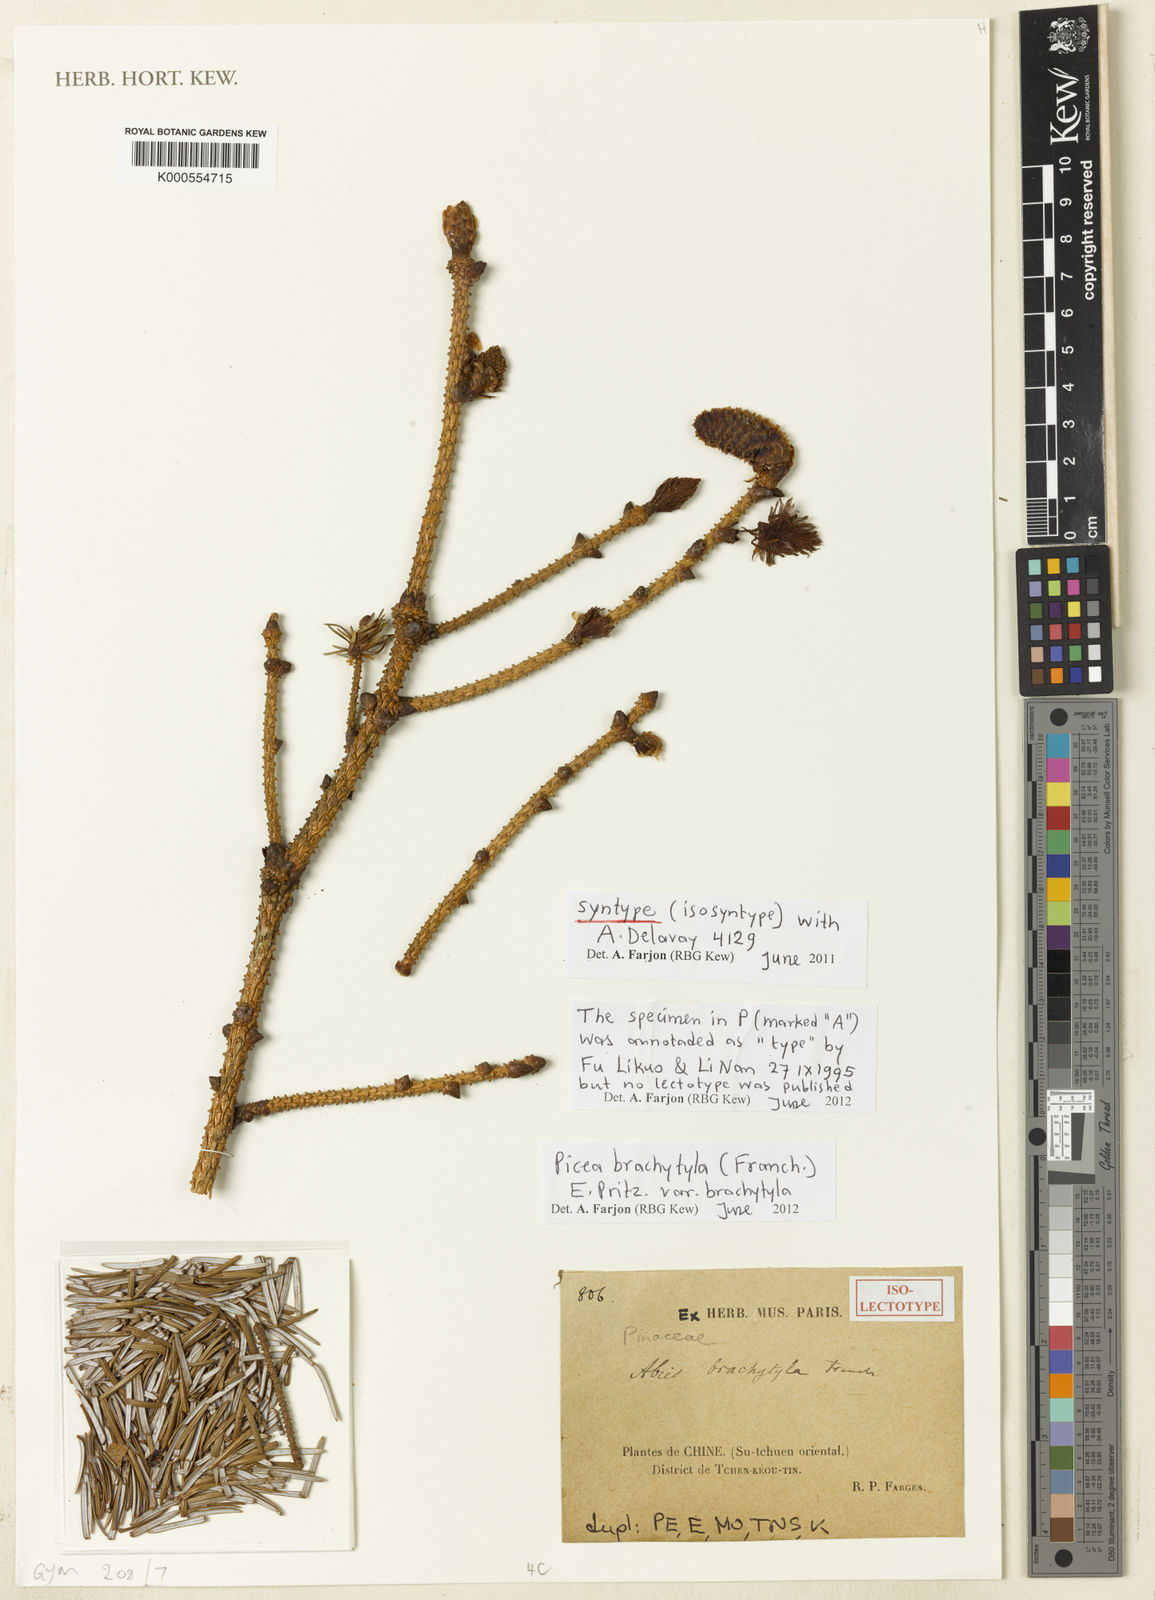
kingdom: Plantae
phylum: Tracheophyta
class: Pinopsida
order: Pinales
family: Pinaceae
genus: Picea
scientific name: Picea brachytyla
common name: Sargent's spruce
